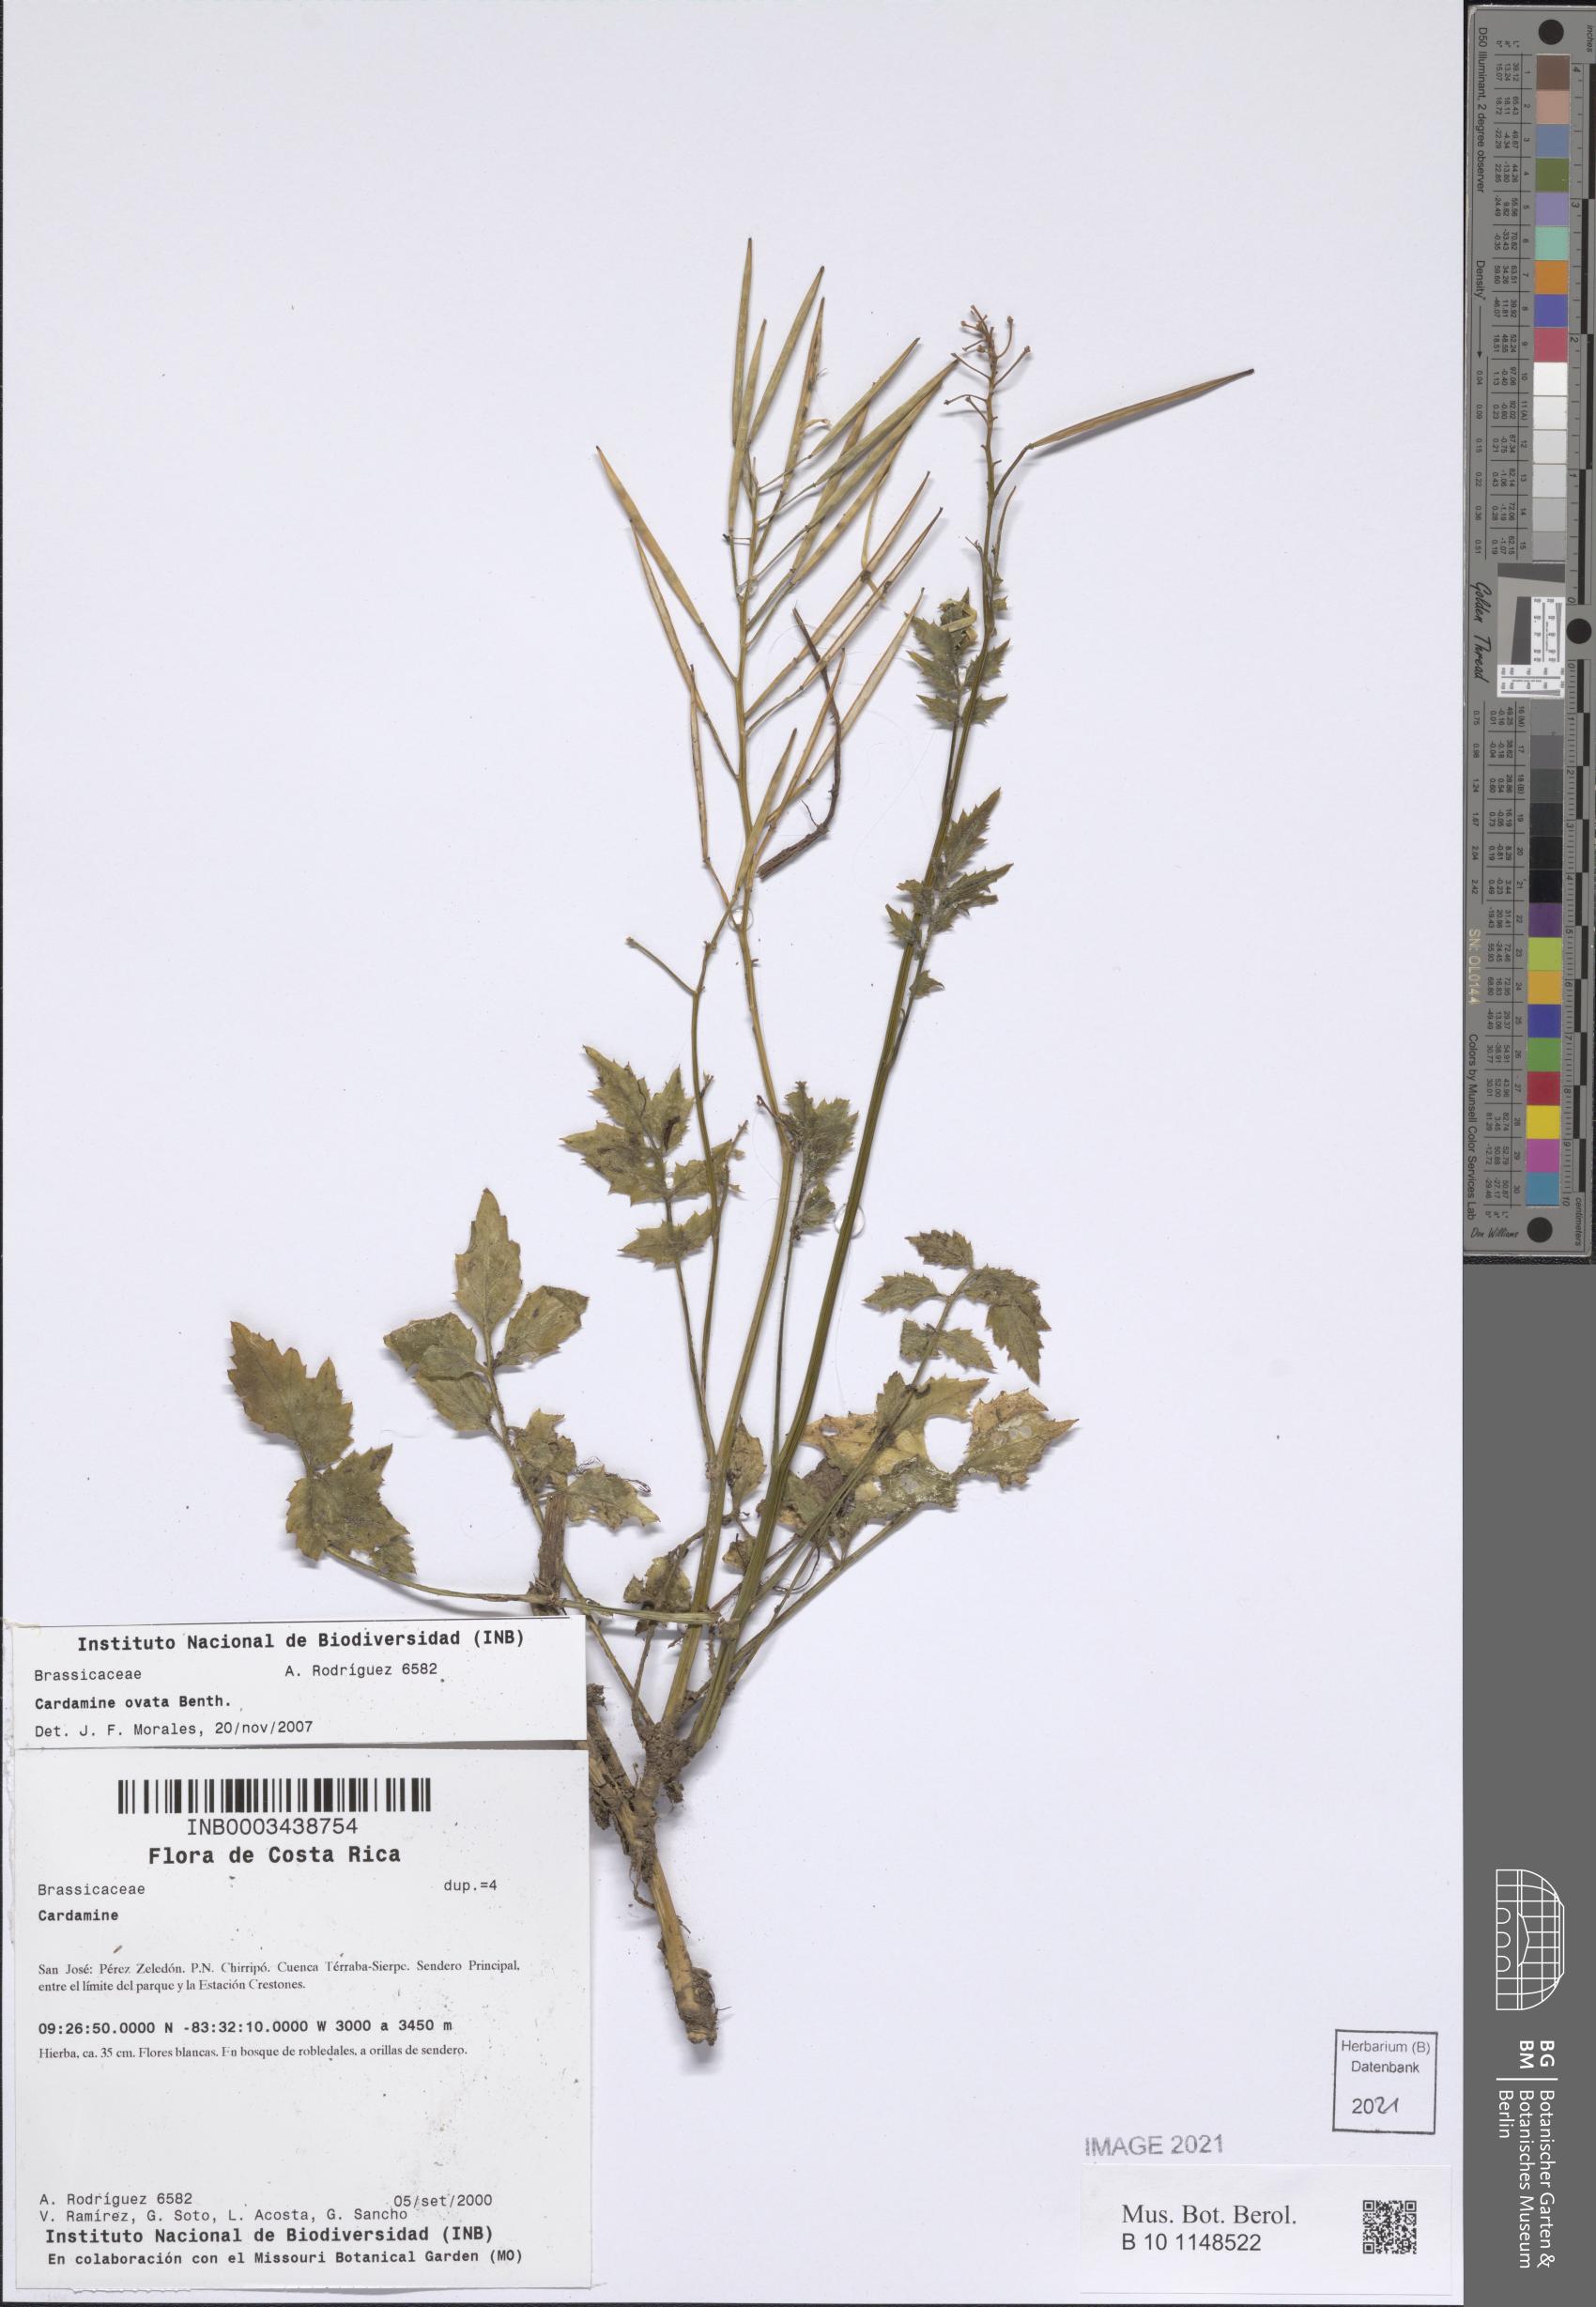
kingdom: Plantae
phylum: Tracheophyta
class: Magnoliopsida
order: Brassicales
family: Brassicaceae
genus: Cardamine
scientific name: Cardamine ovata
